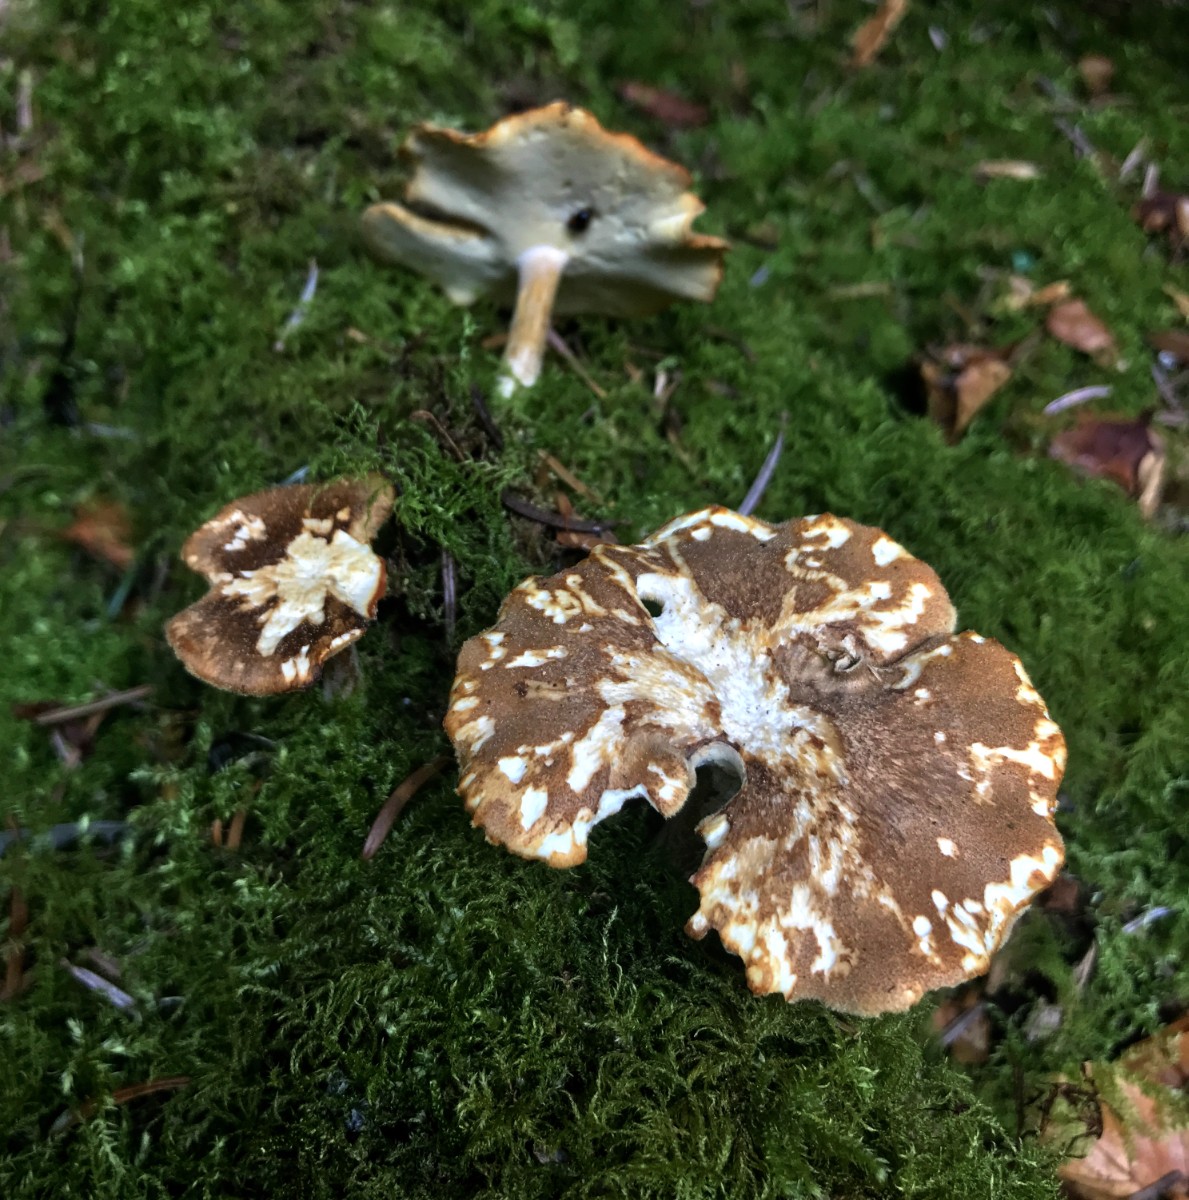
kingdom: Fungi
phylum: Basidiomycota
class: Agaricomycetes
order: Polyporales
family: Polyporaceae
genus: Lentinus
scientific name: Lentinus substrictus
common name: forårs-stilkporesvamp
